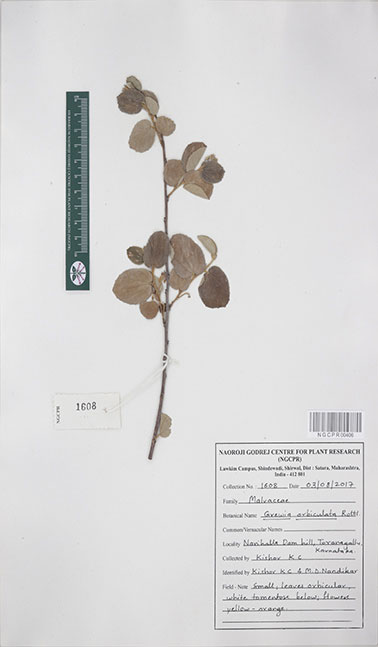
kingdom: Plantae
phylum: Tracheophyta
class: Magnoliopsida
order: Malvales
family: Malvaceae
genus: Grewia
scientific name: Grewia orbiculata
